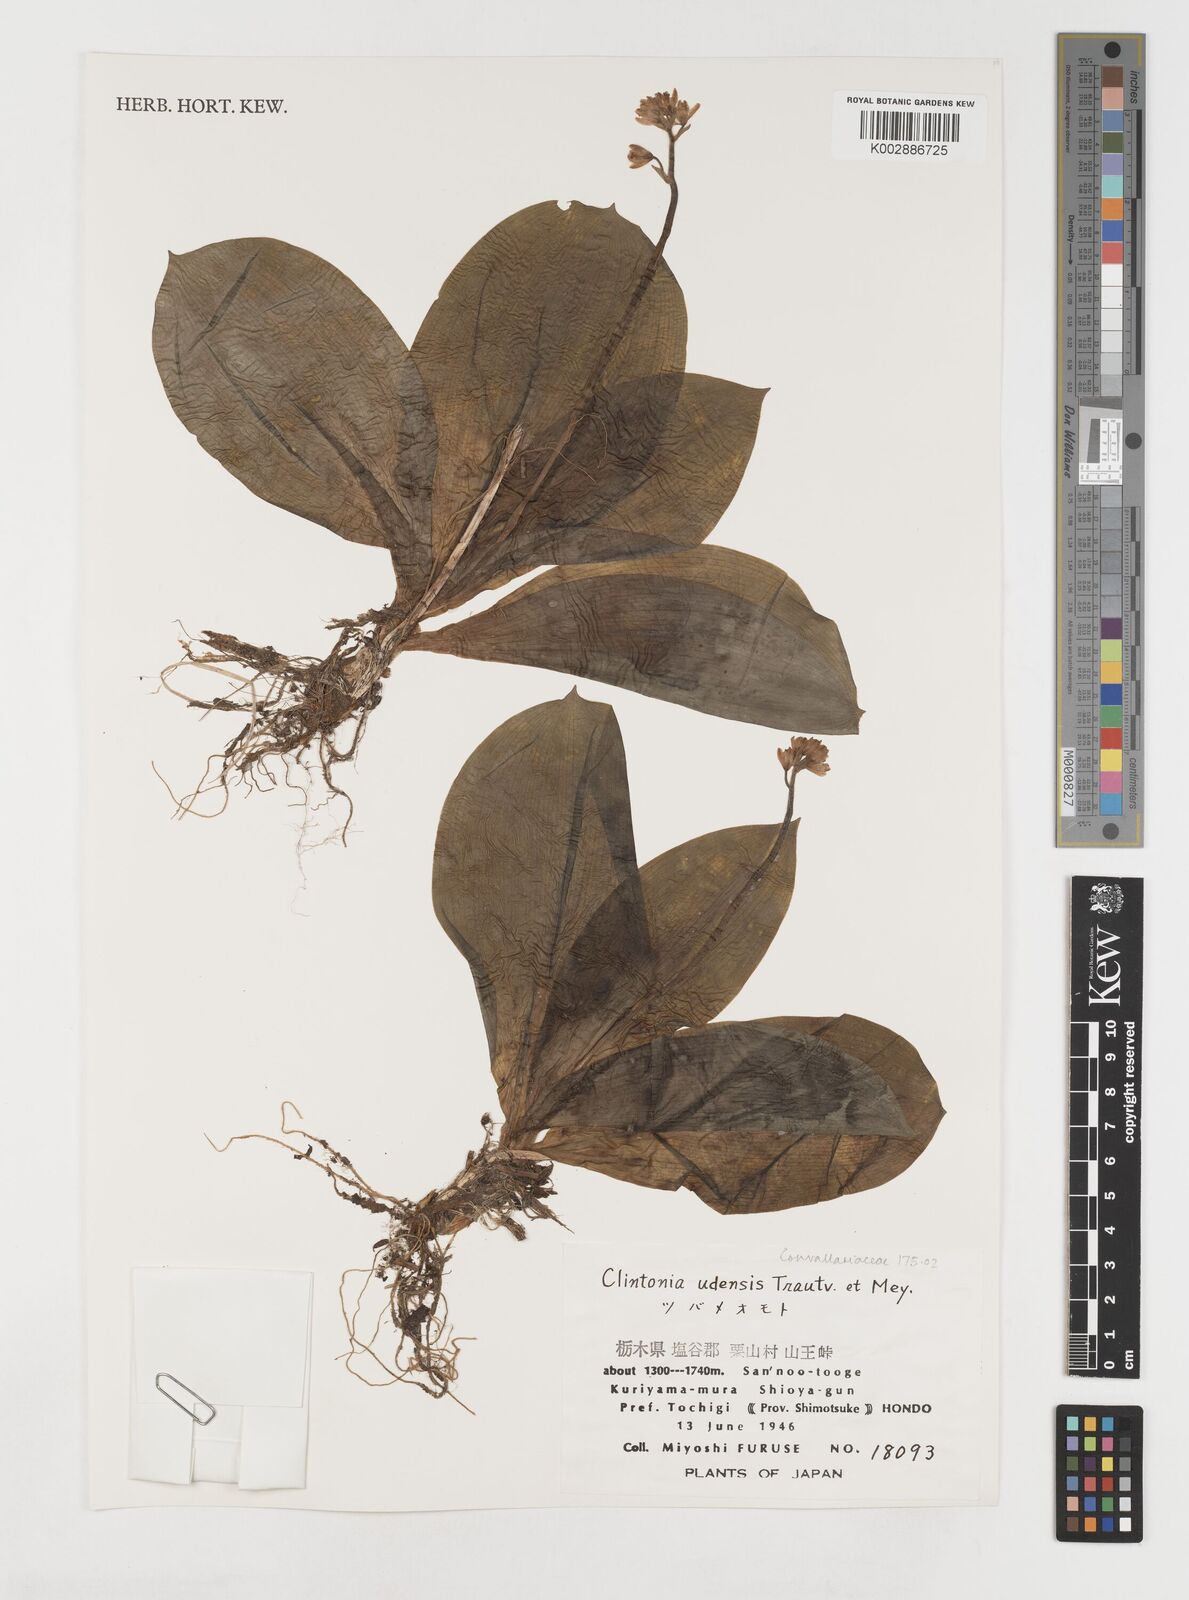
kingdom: Plantae
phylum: Tracheophyta
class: Liliopsida
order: Liliales
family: Liliaceae
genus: Clintonia
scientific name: Clintonia udensis
